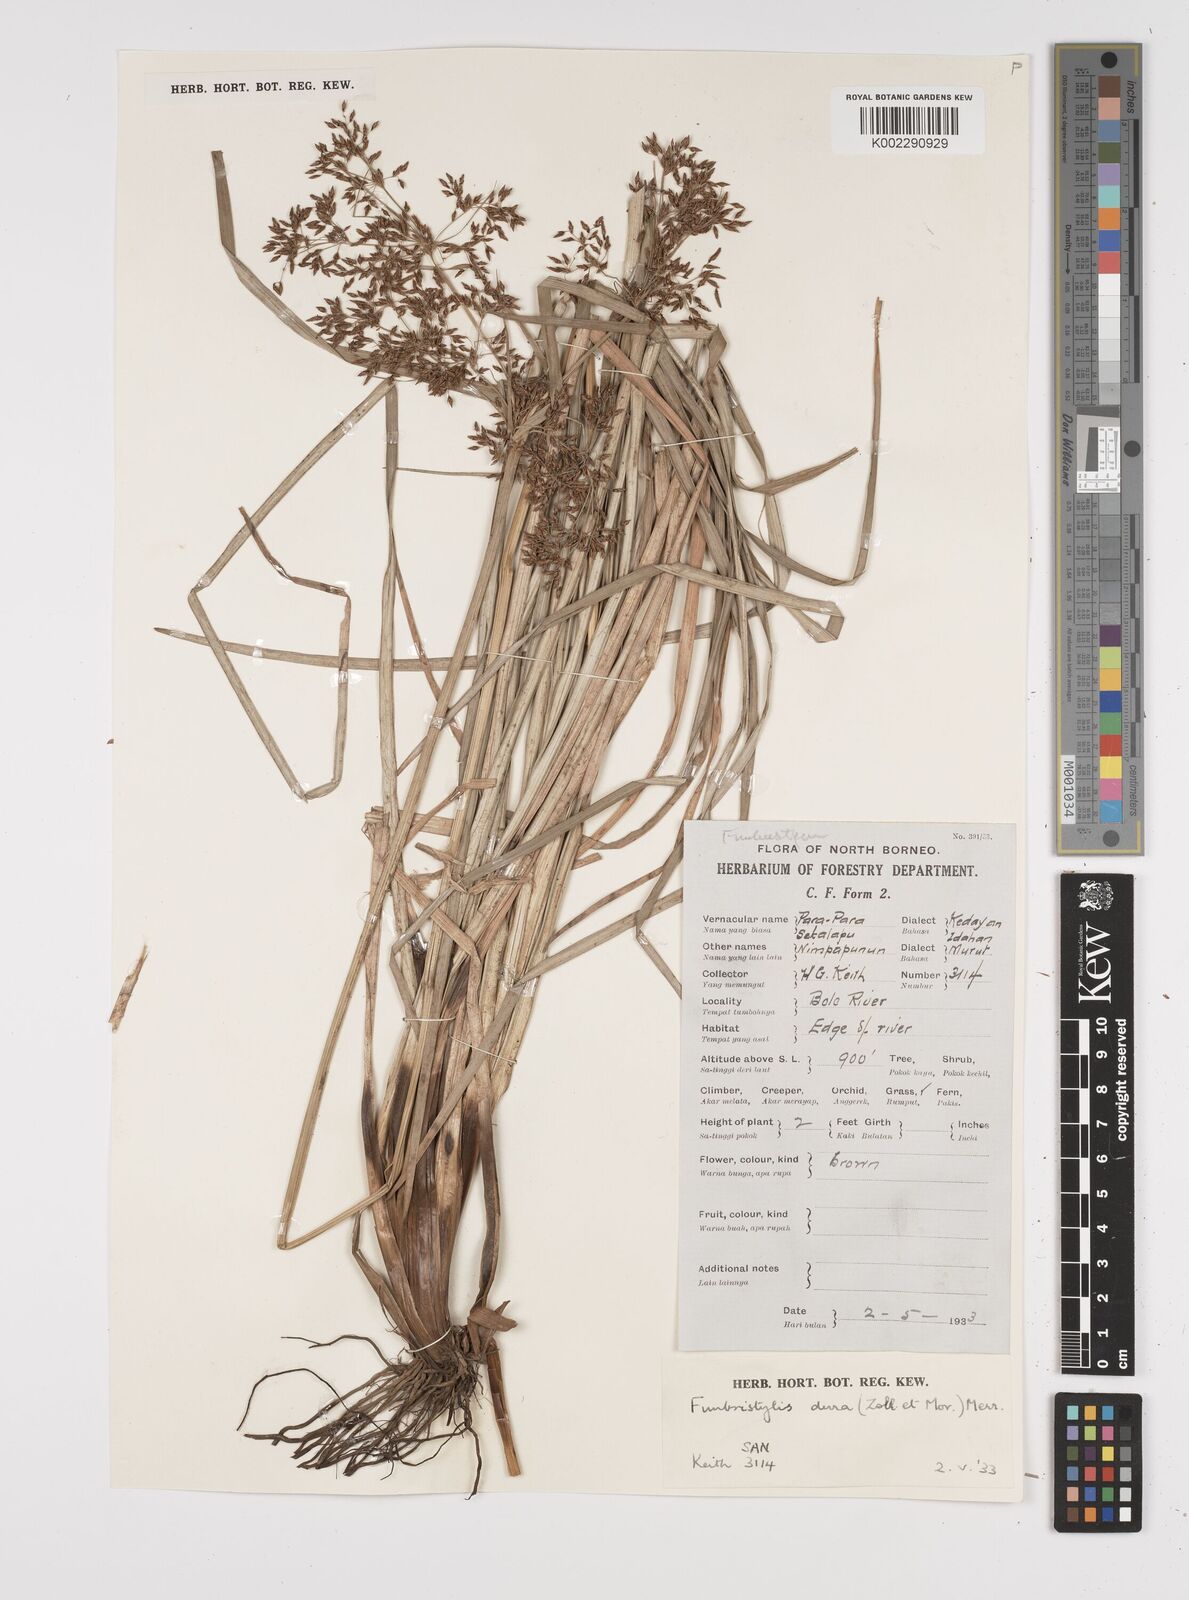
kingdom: Plantae
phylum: Tracheophyta
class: Liliopsida
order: Poales
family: Cyperaceae
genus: Fimbristylis
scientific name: Fimbristylis dura
